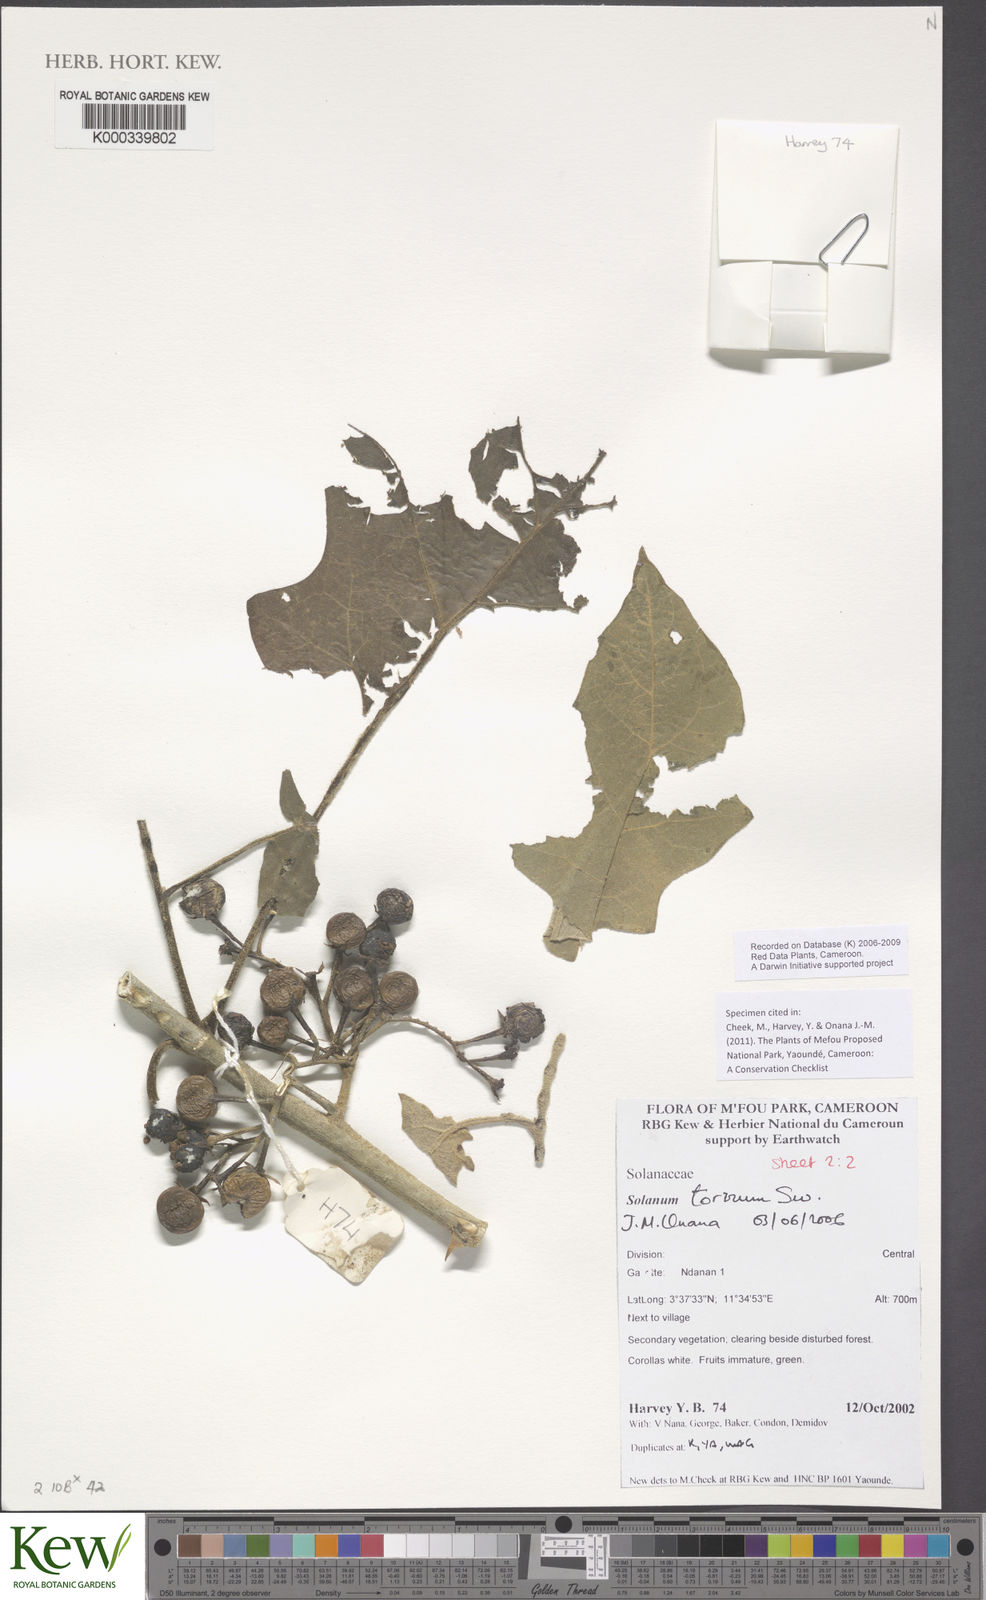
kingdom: Plantae
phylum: Tracheophyta
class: Magnoliopsida
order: Solanales
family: Solanaceae
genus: Solanum
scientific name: Solanum torvum
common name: Turkey berry
